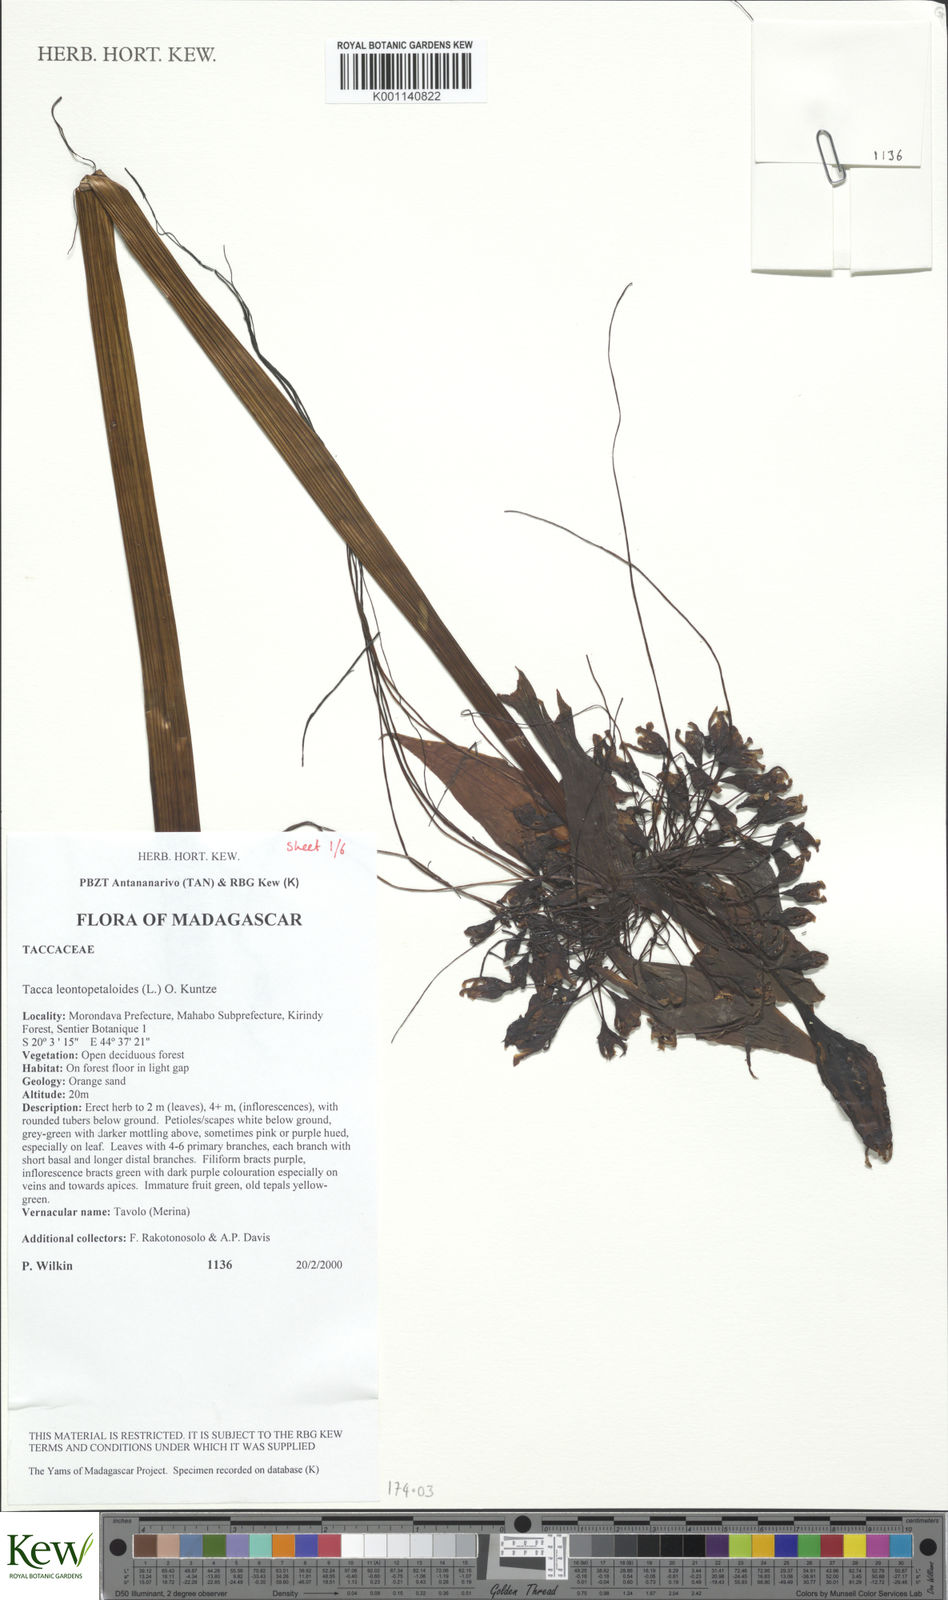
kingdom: Plantae
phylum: Tracheophyta
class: Liliopsida
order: Dioscoreales
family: Dioscoreaceae
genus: Tacca
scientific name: Tacca leontopetaloides
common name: Arrowroot
